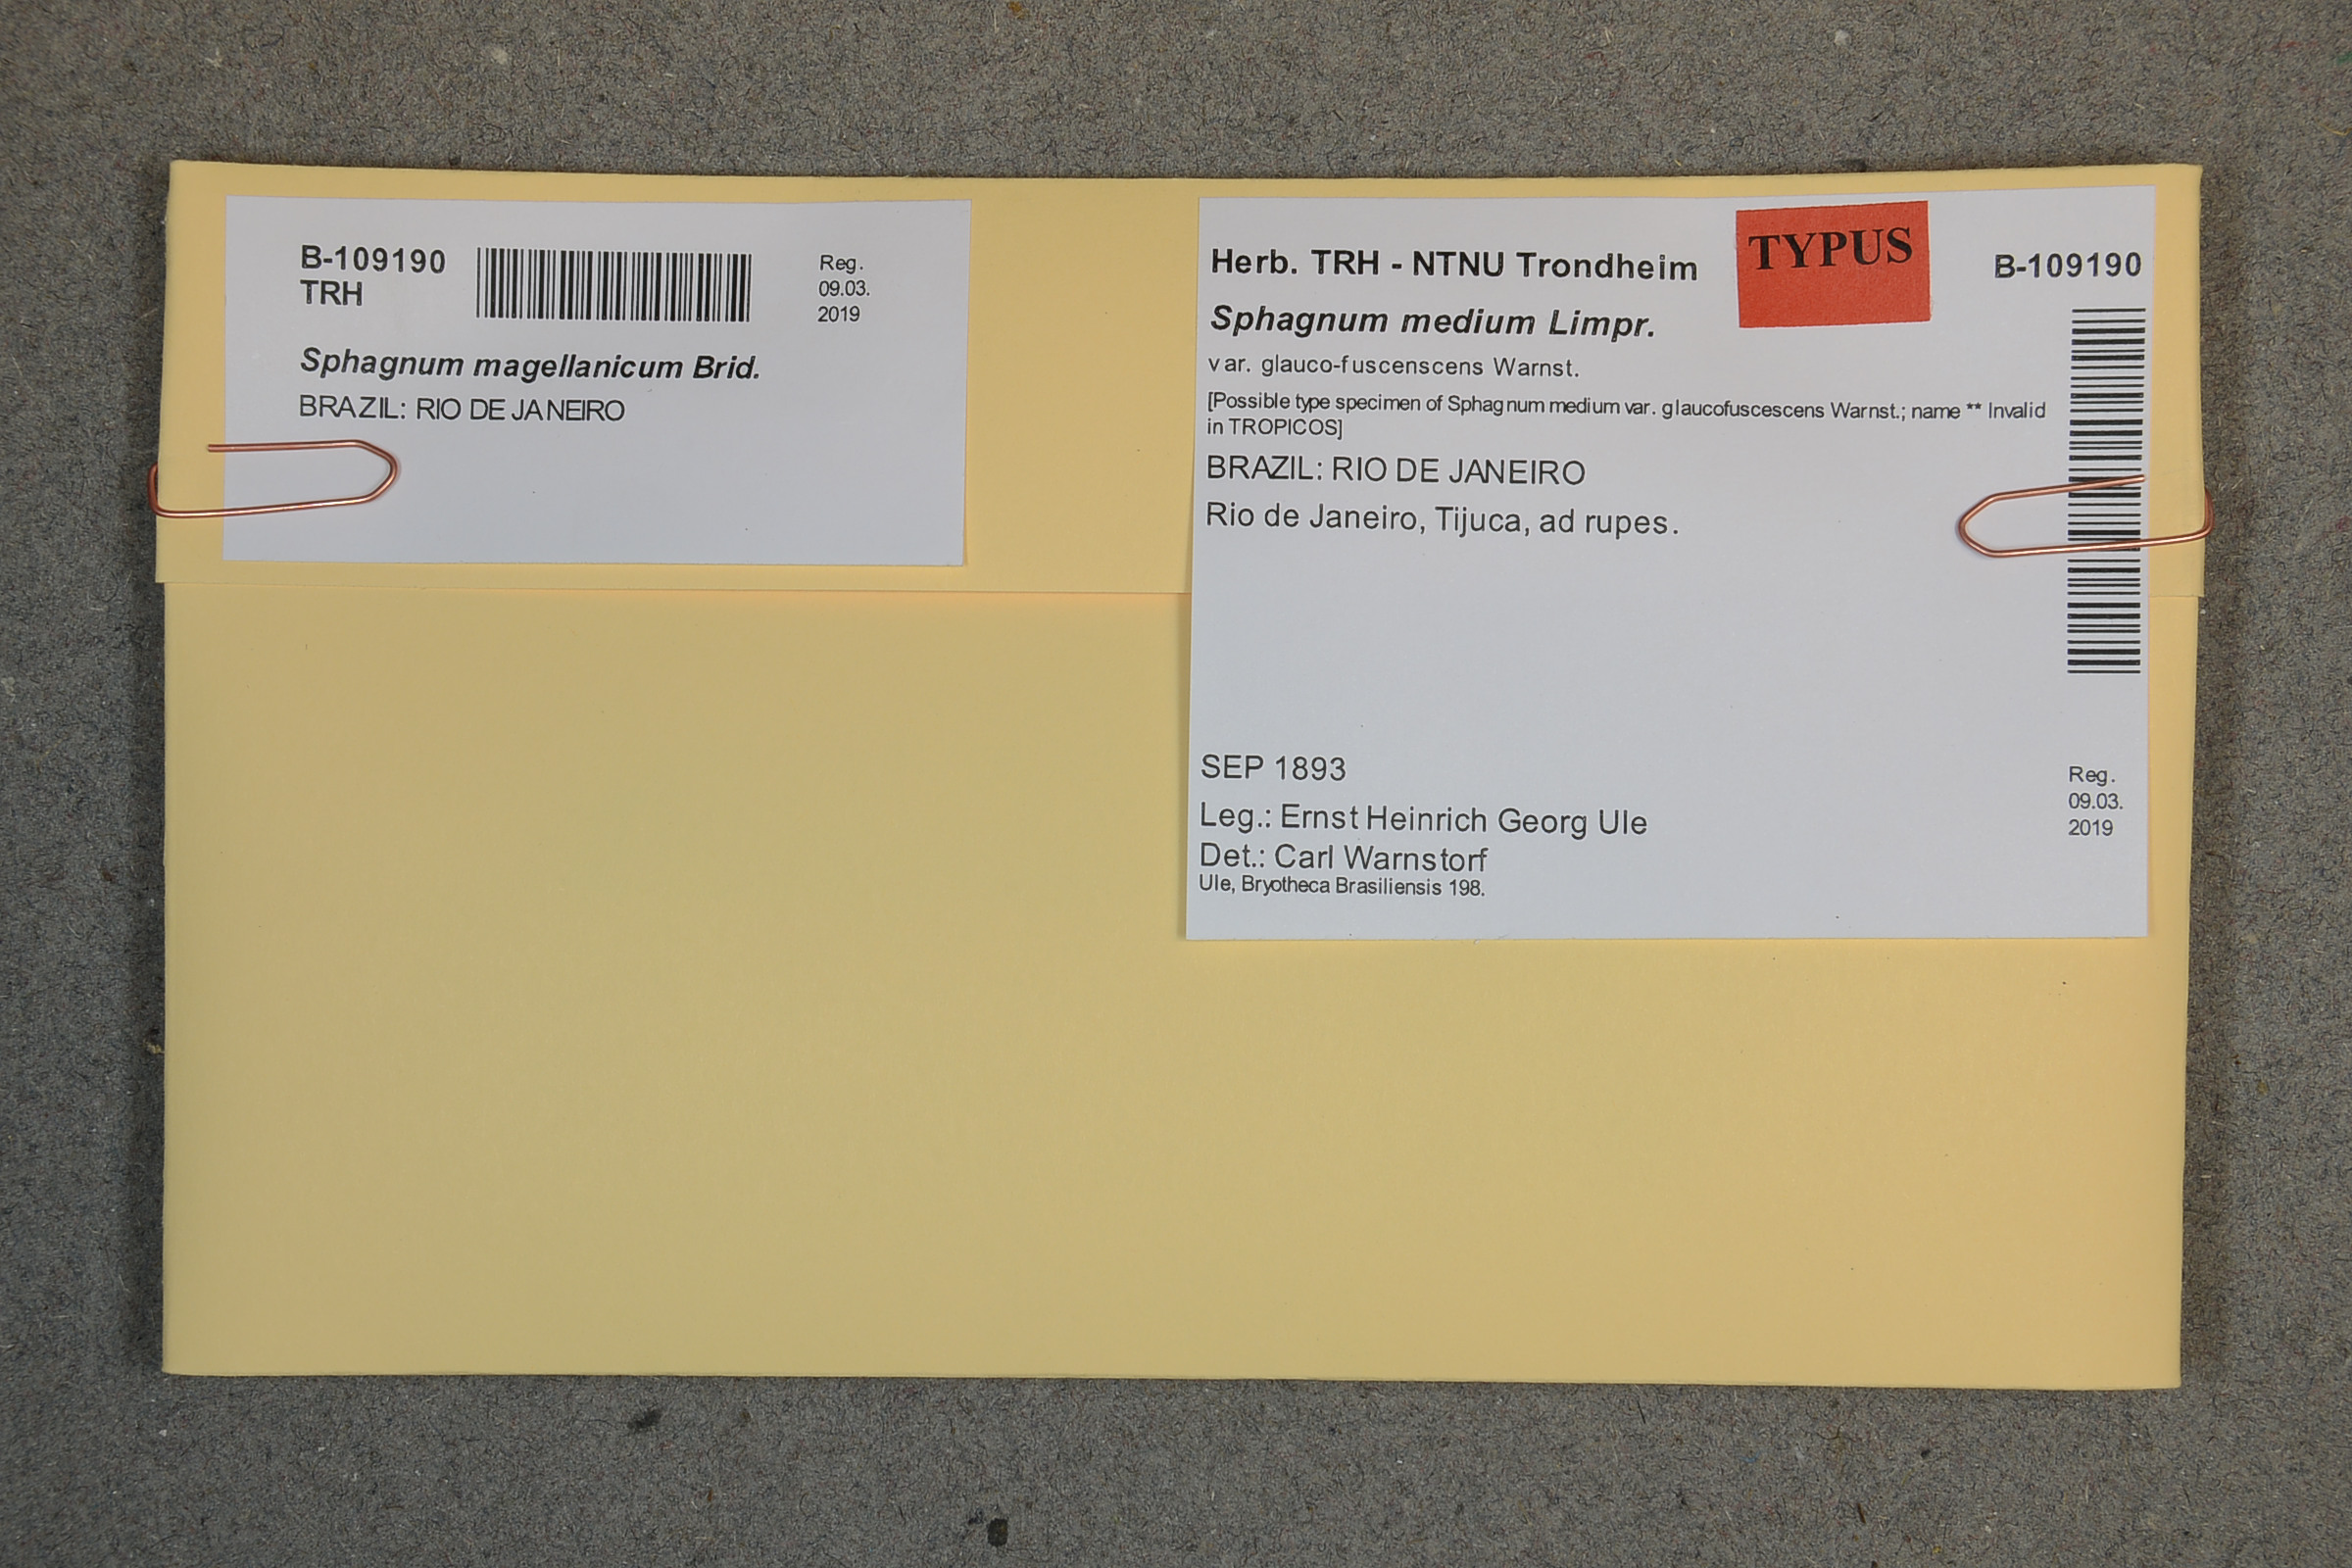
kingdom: Plantae
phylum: Bryophyta
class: Sphagnopsida
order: Sphagnales
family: Sphagnaceae
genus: Sphagnum
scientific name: Sphagnum medium
